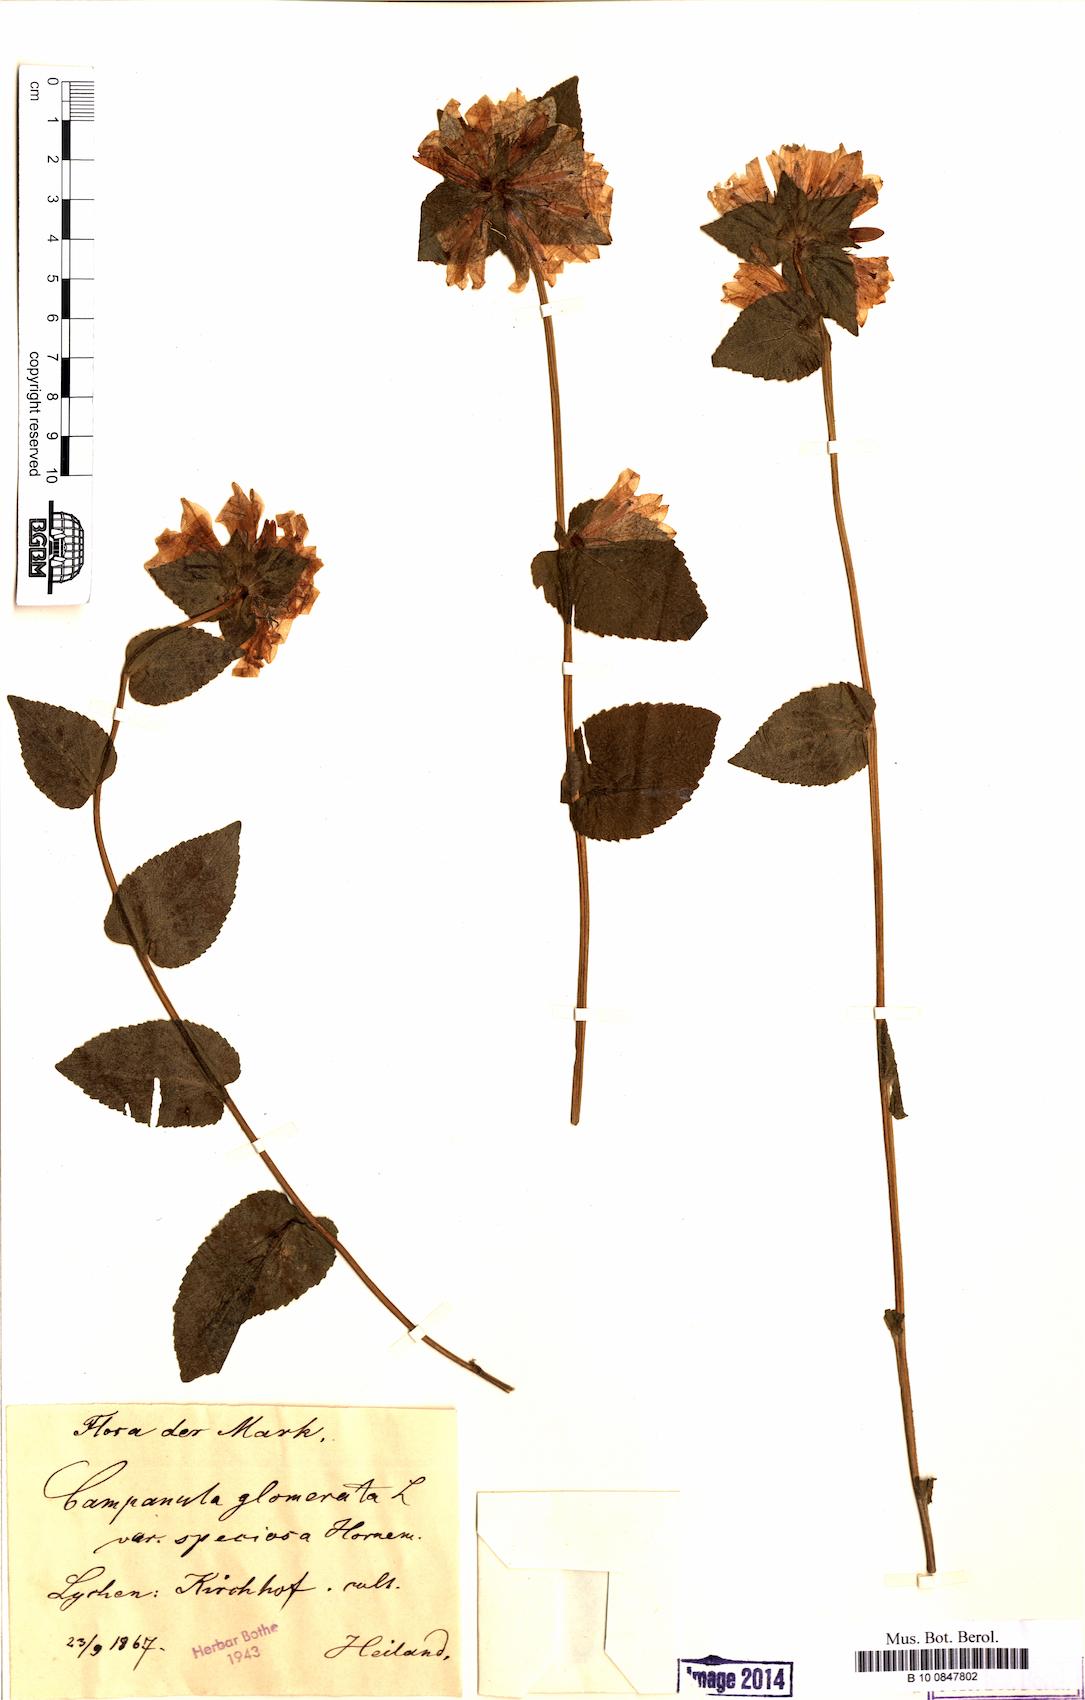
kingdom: Plantae
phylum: Tracheophyta
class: Magnoliopsida
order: Asterales
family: Campanulaceae
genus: Campanula
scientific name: Campanula glomerata
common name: Clustered bellflower
